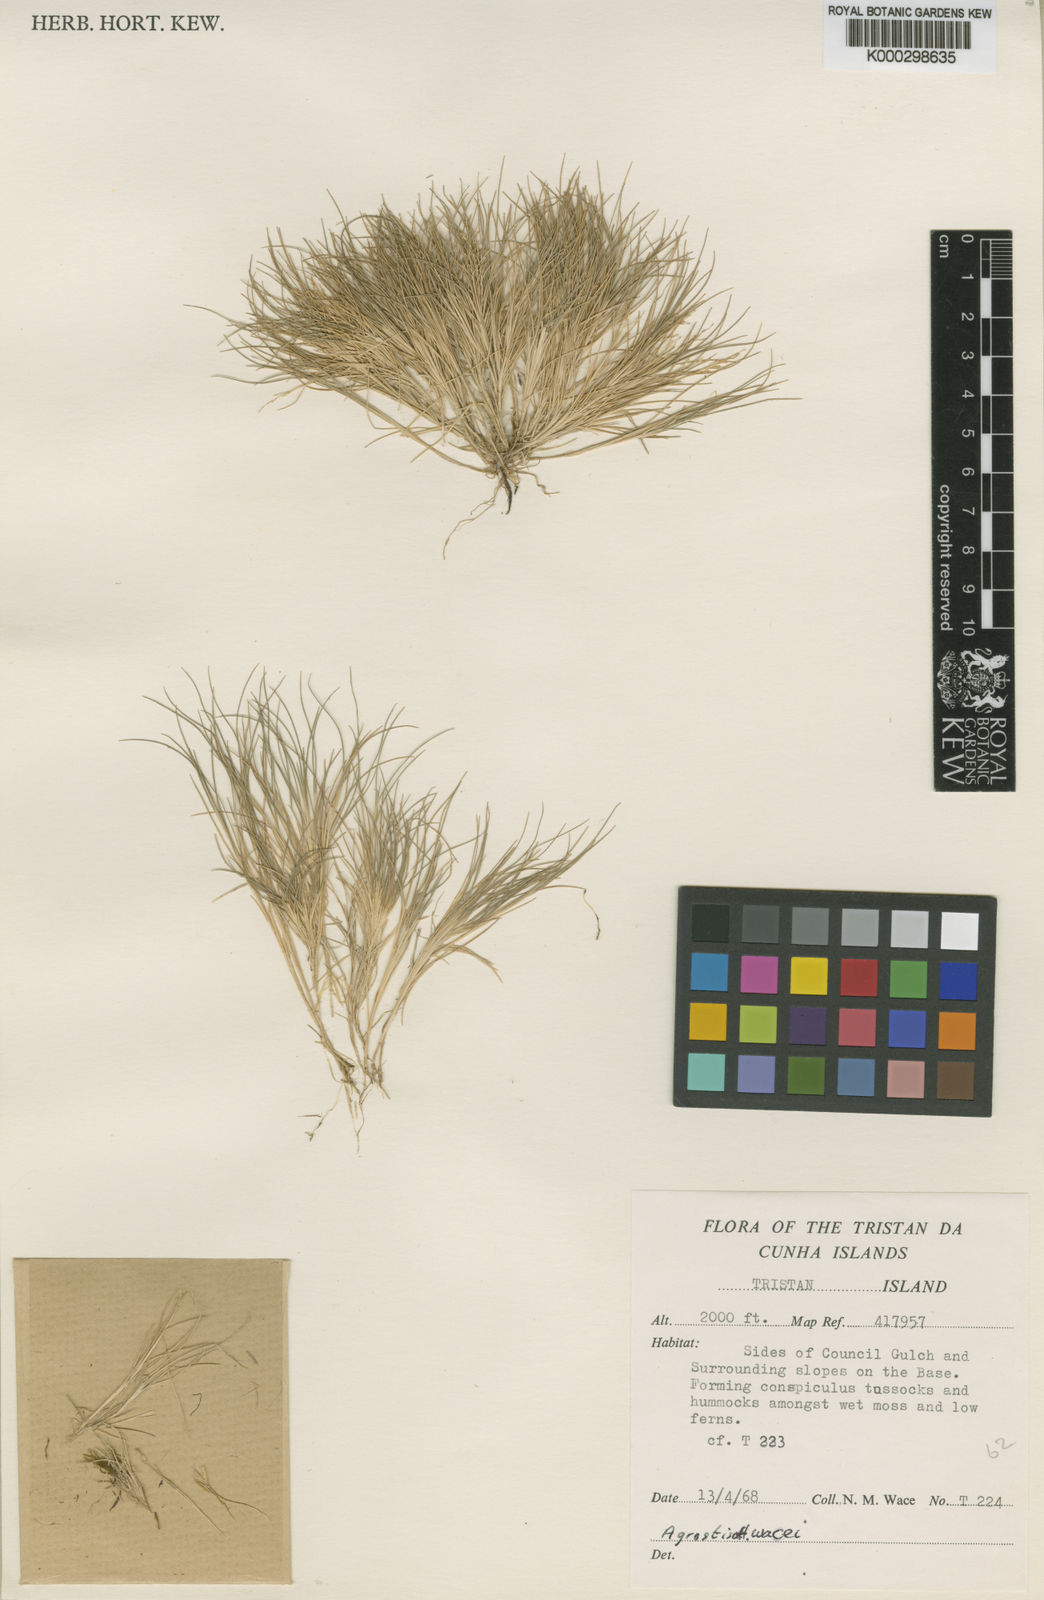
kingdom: Plantae
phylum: Tracheophyta
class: Liliopsida
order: Poales
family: Poaceae
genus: Agrostis
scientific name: Agrostis wacei
